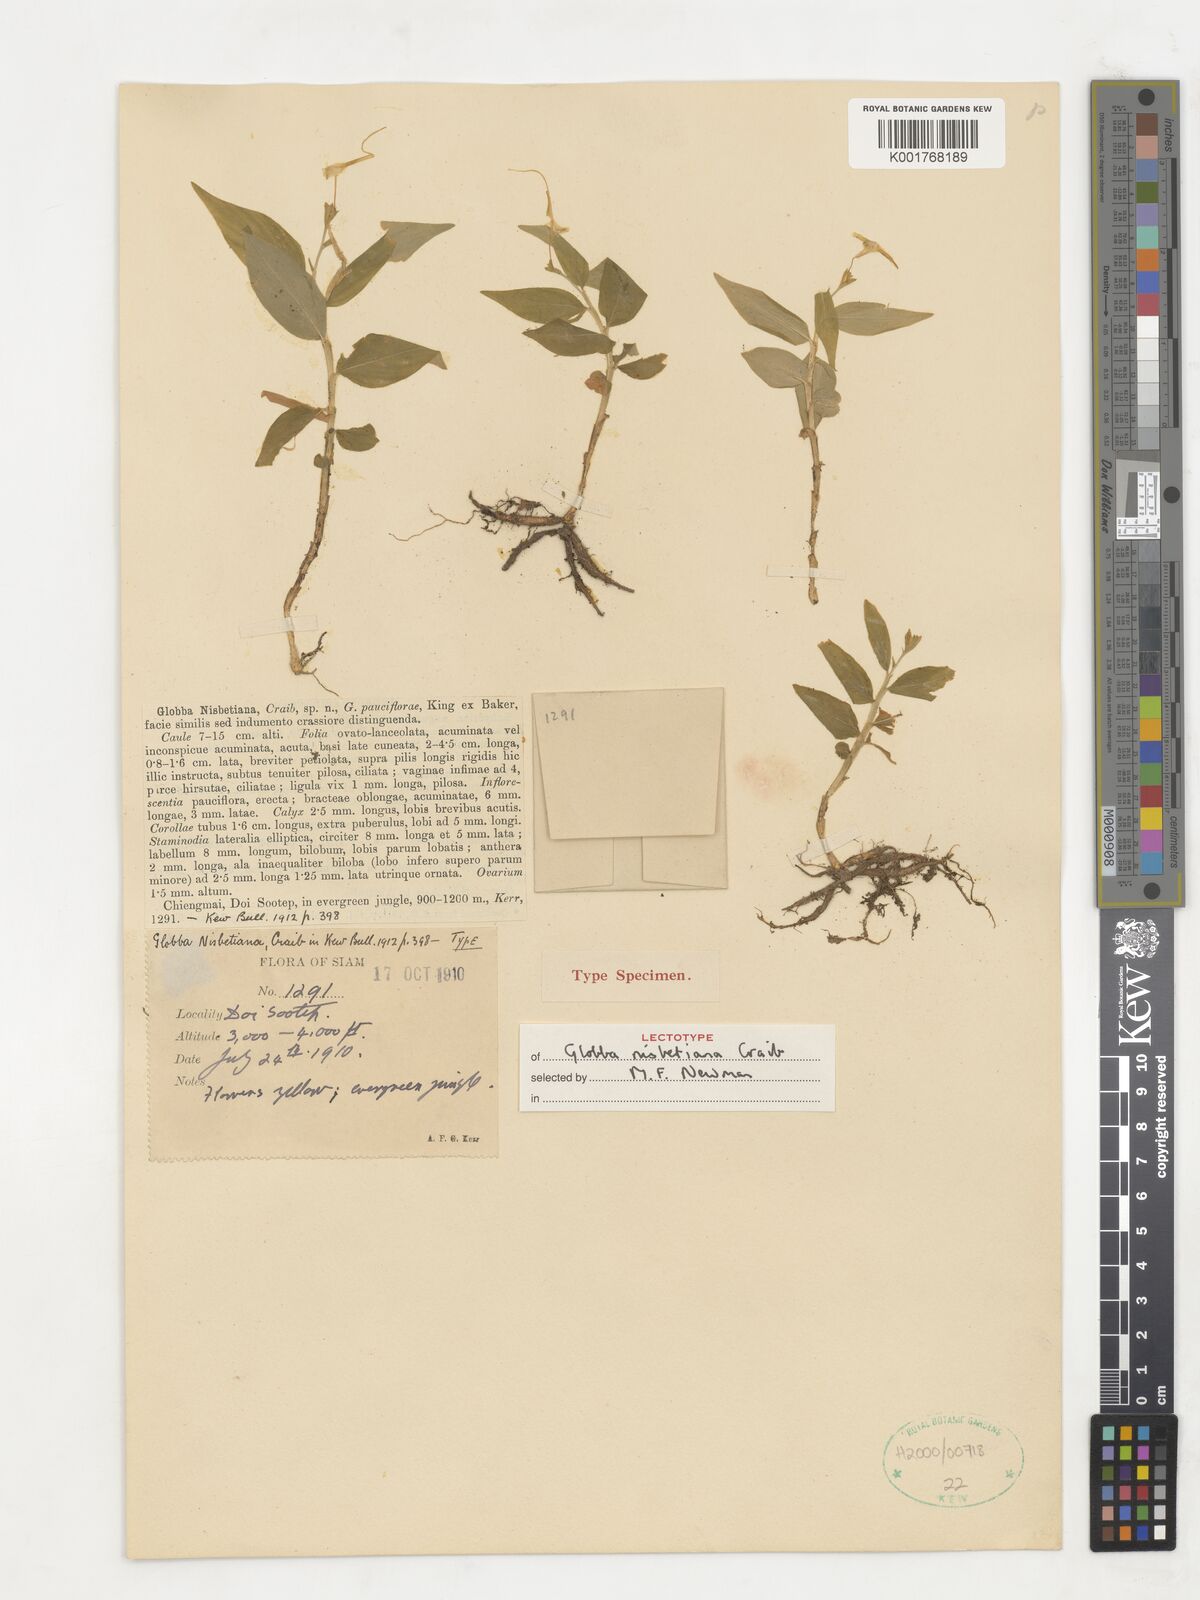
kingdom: Plantae
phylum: Tracheophyta
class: Liliopsida
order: Zingiberales
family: Zingiberaceae
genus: Globba
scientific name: Globba nisbetiana
